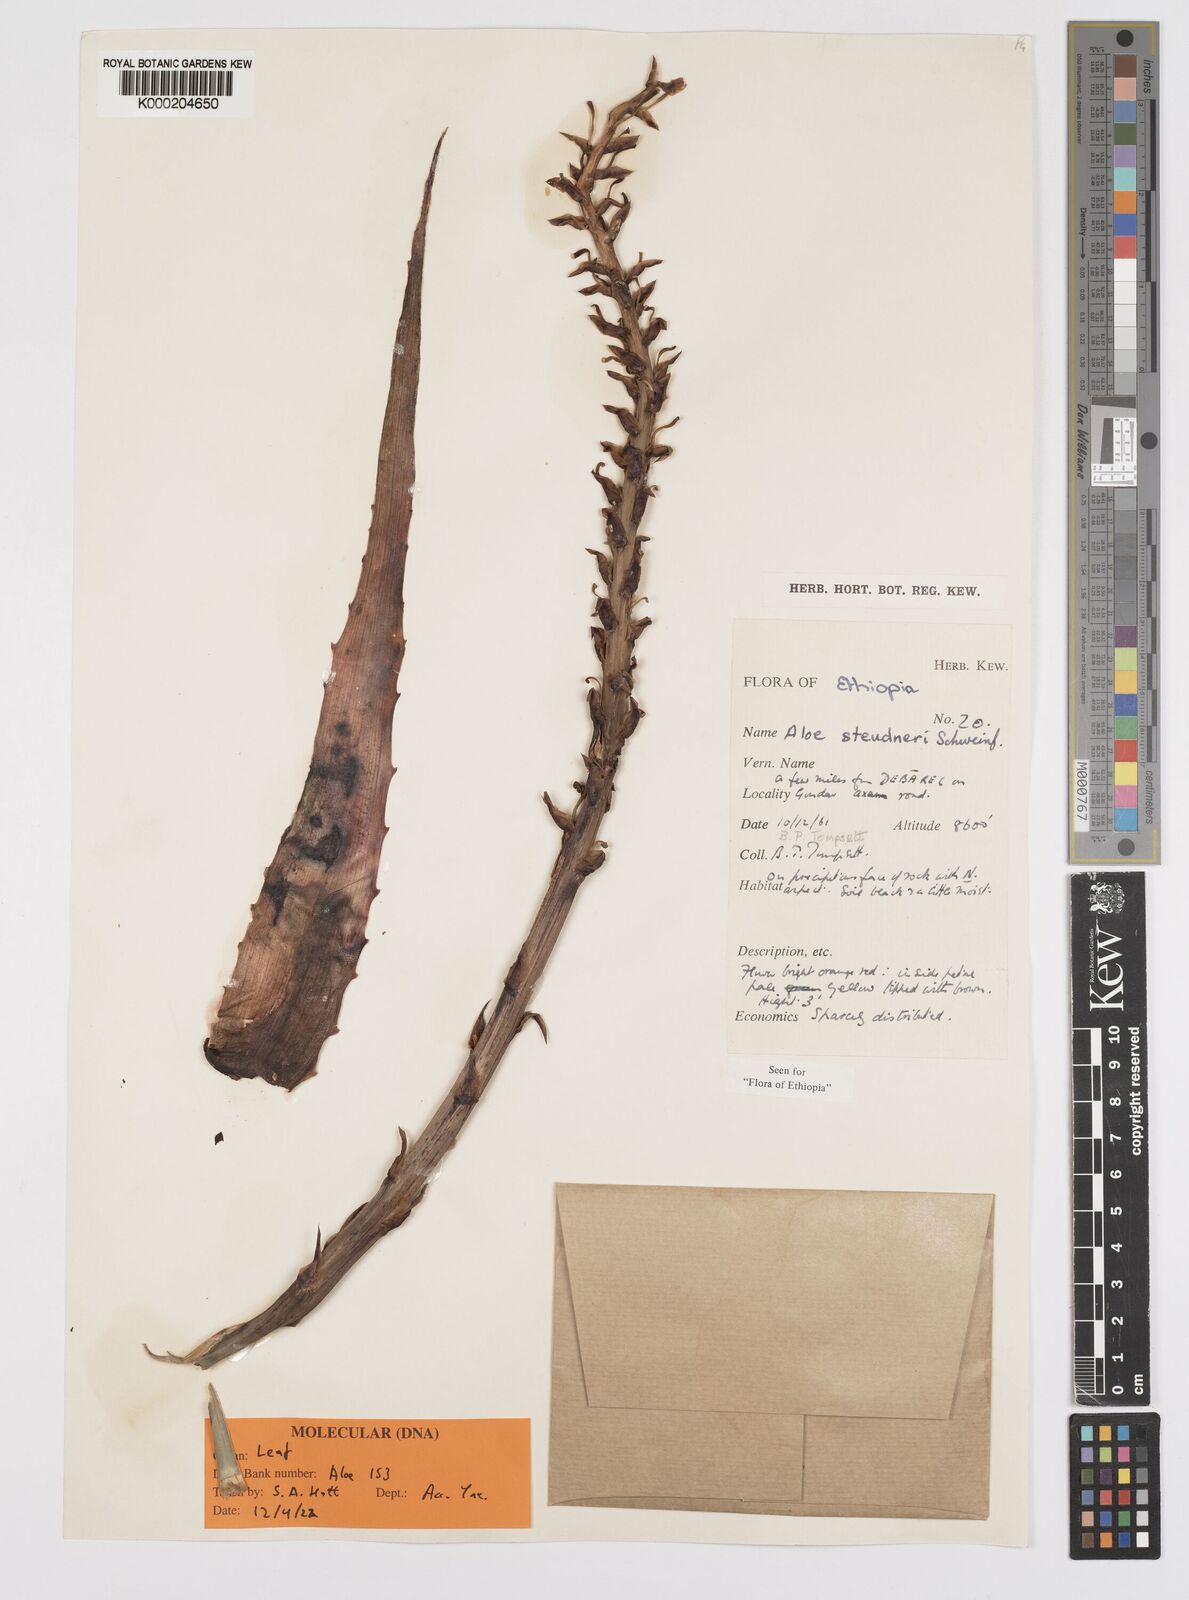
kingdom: Plantae
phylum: Tracheophyta
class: Liliopsida
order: Asparagales
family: Asphodelaceae
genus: Aloe
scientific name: Aloe steudneri
